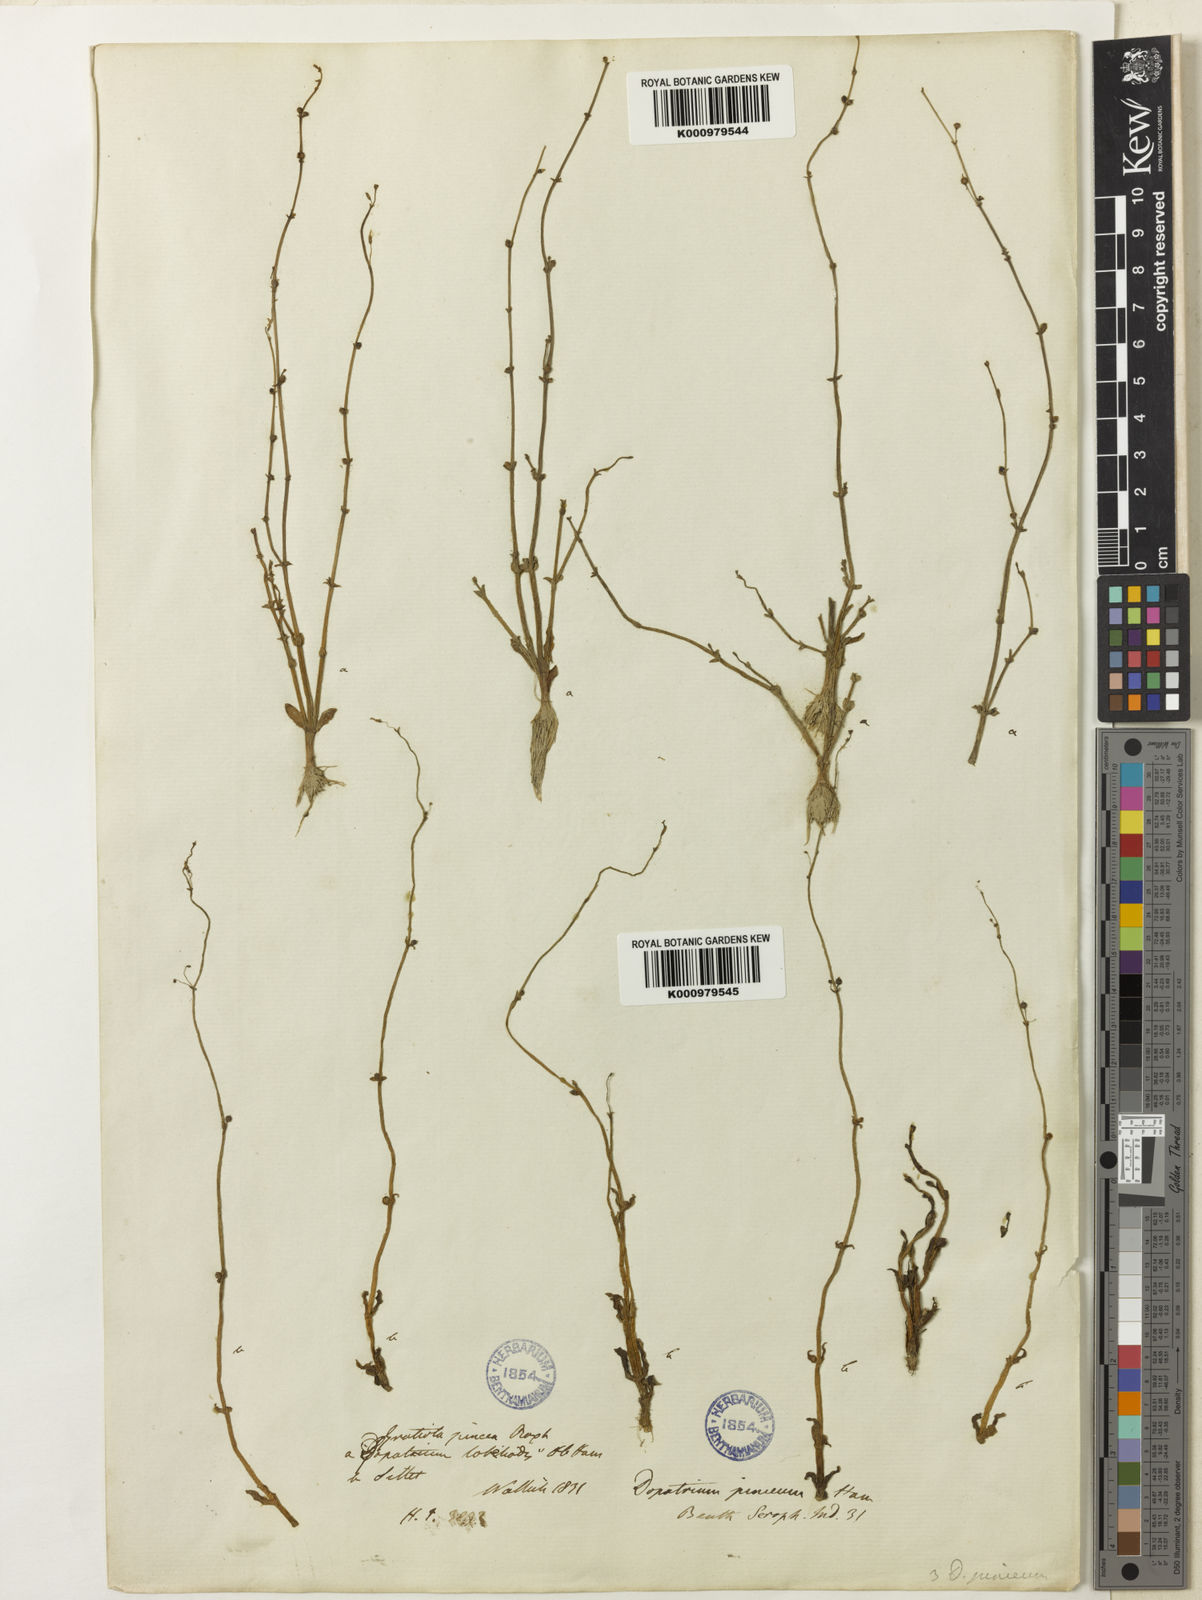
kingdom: Plantae
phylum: Tracheophyta
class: Magnoliopsida
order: Lamiales
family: Plantaginaceae
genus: Dopatrium
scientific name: Dopatrium junceum
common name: Horsefly's eye
